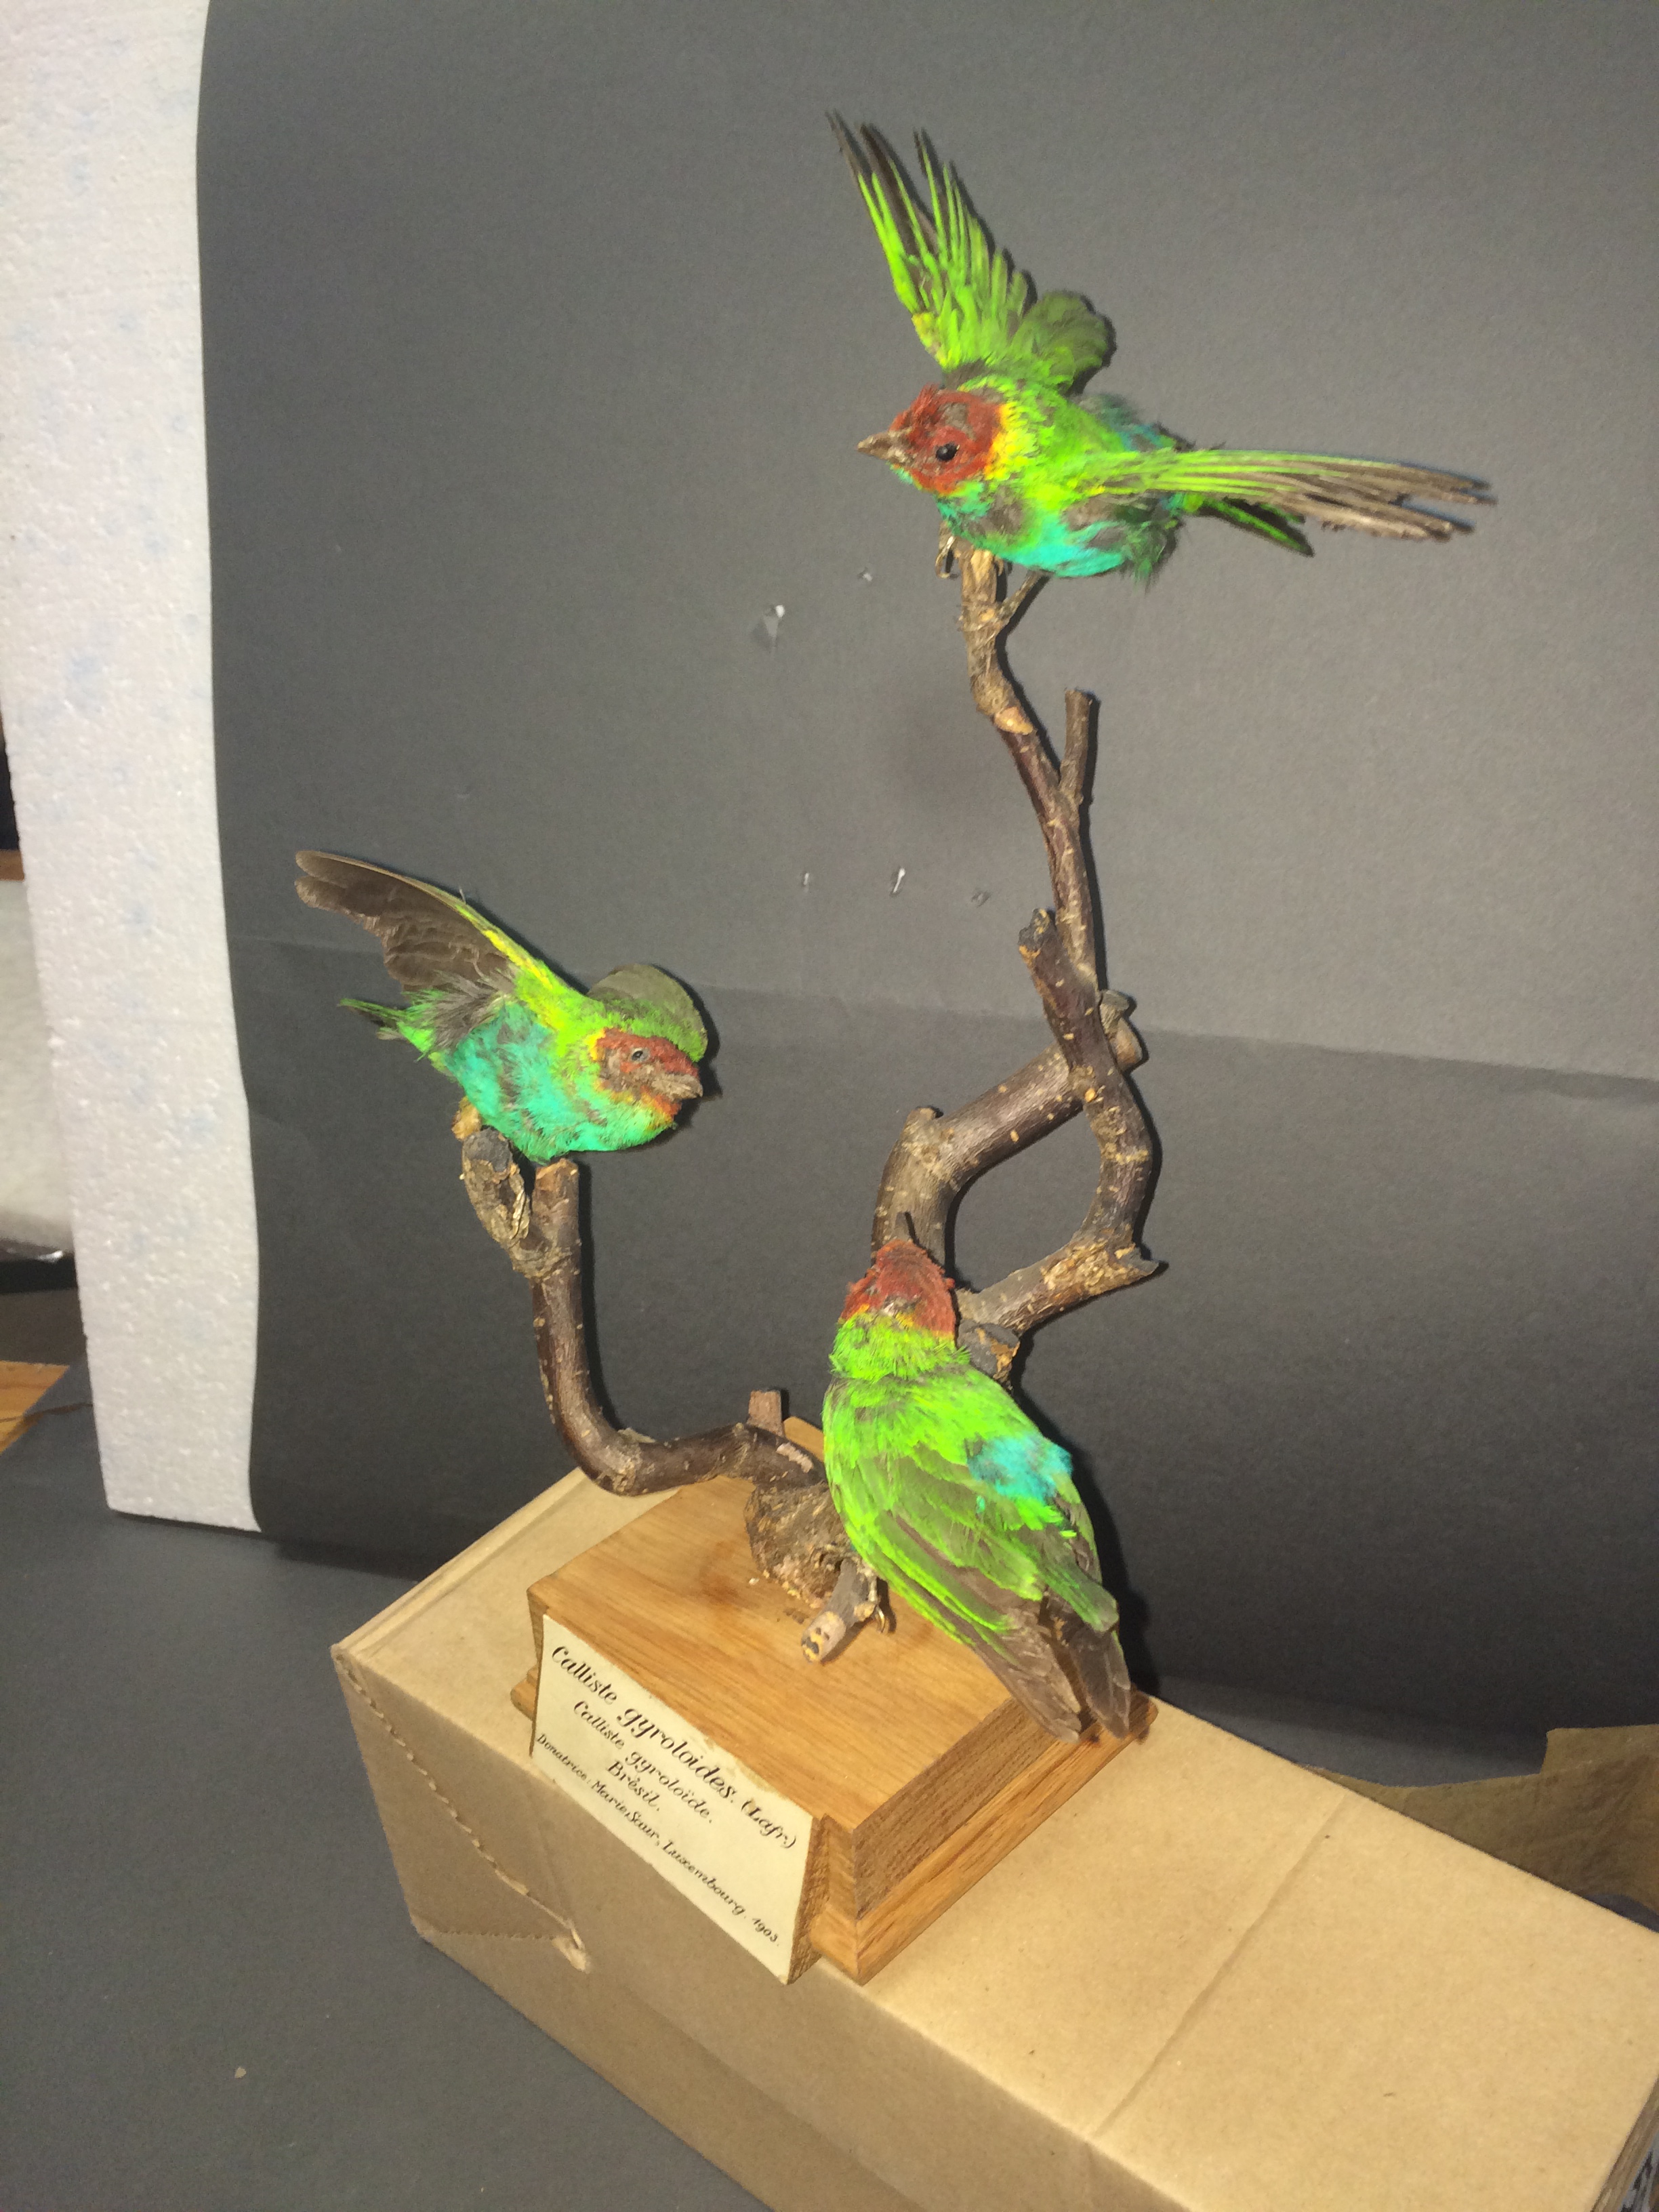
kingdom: Animalia
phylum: Chordata
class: Aves
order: Passeriformes
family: Thraupidae
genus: Tangara
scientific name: Tangara gyrola
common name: Bay-headed tanager
